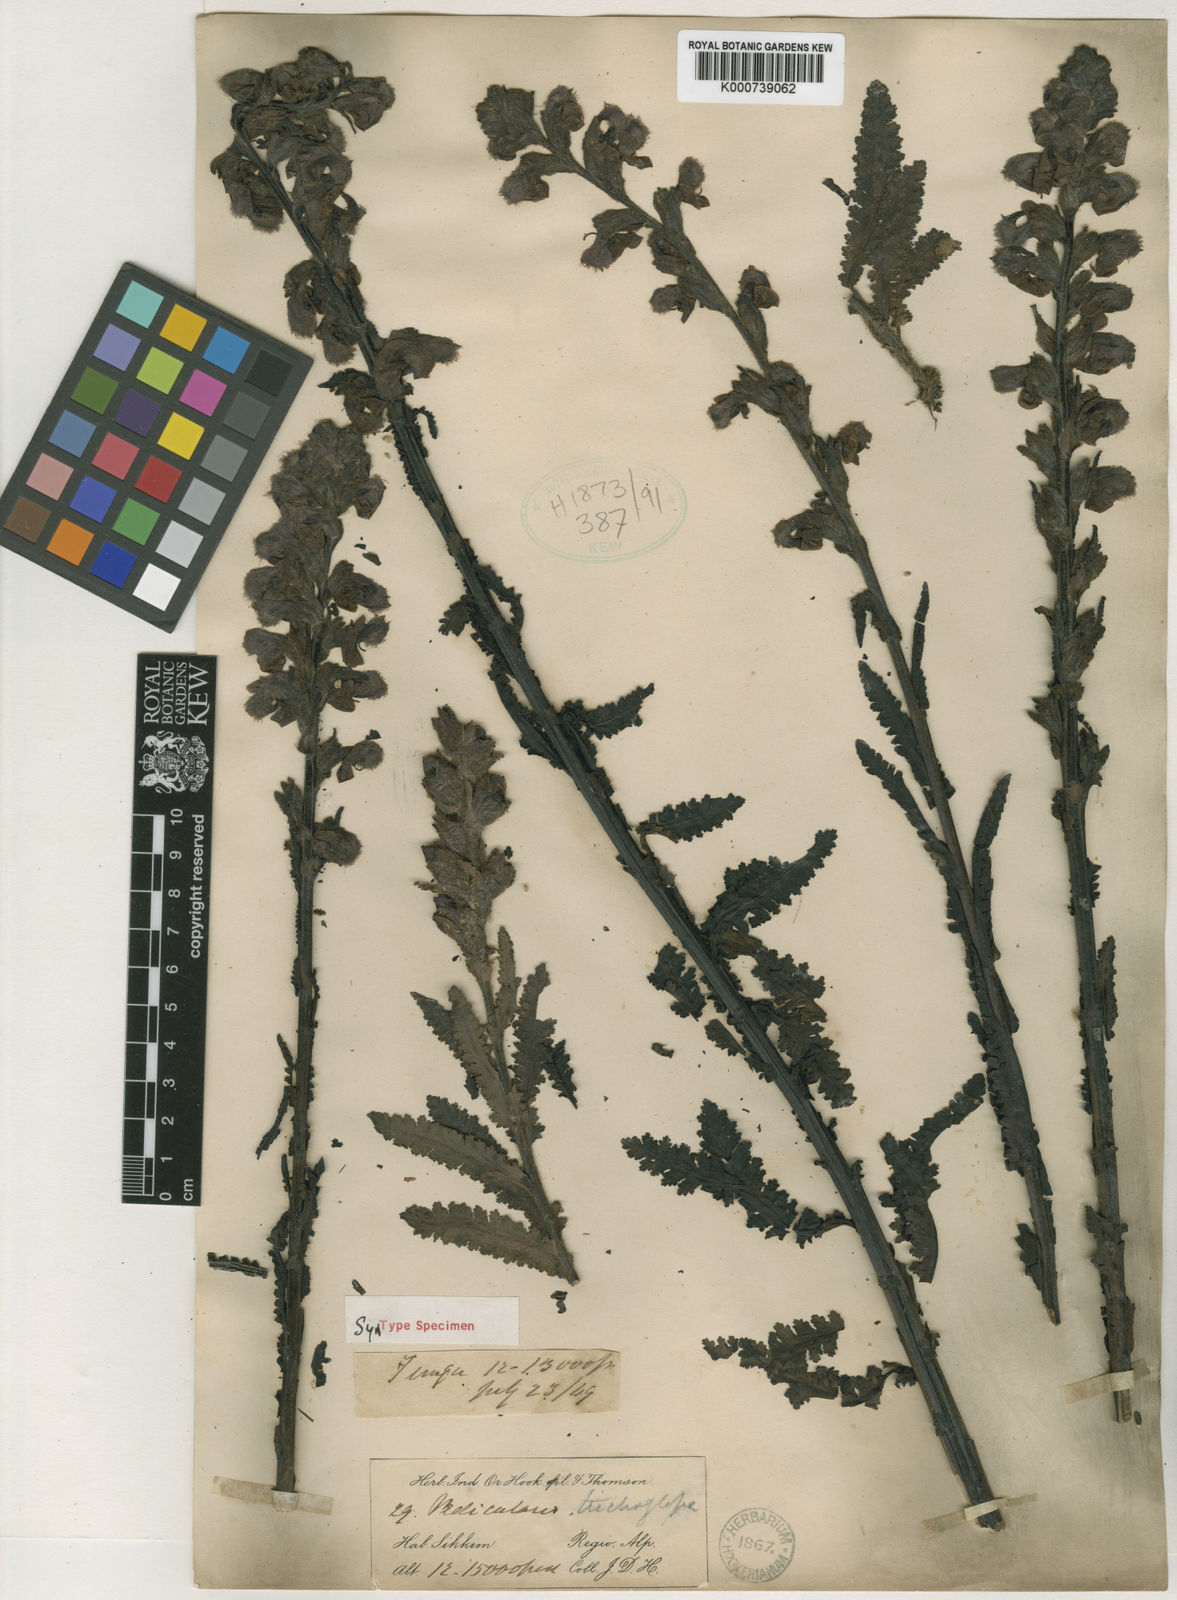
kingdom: Plantae
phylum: Tracheophyta
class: Magnoliopsida
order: Lamiales
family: Orobanchaceae
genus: Pedicularis
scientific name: Pedicularis trichoglossa
